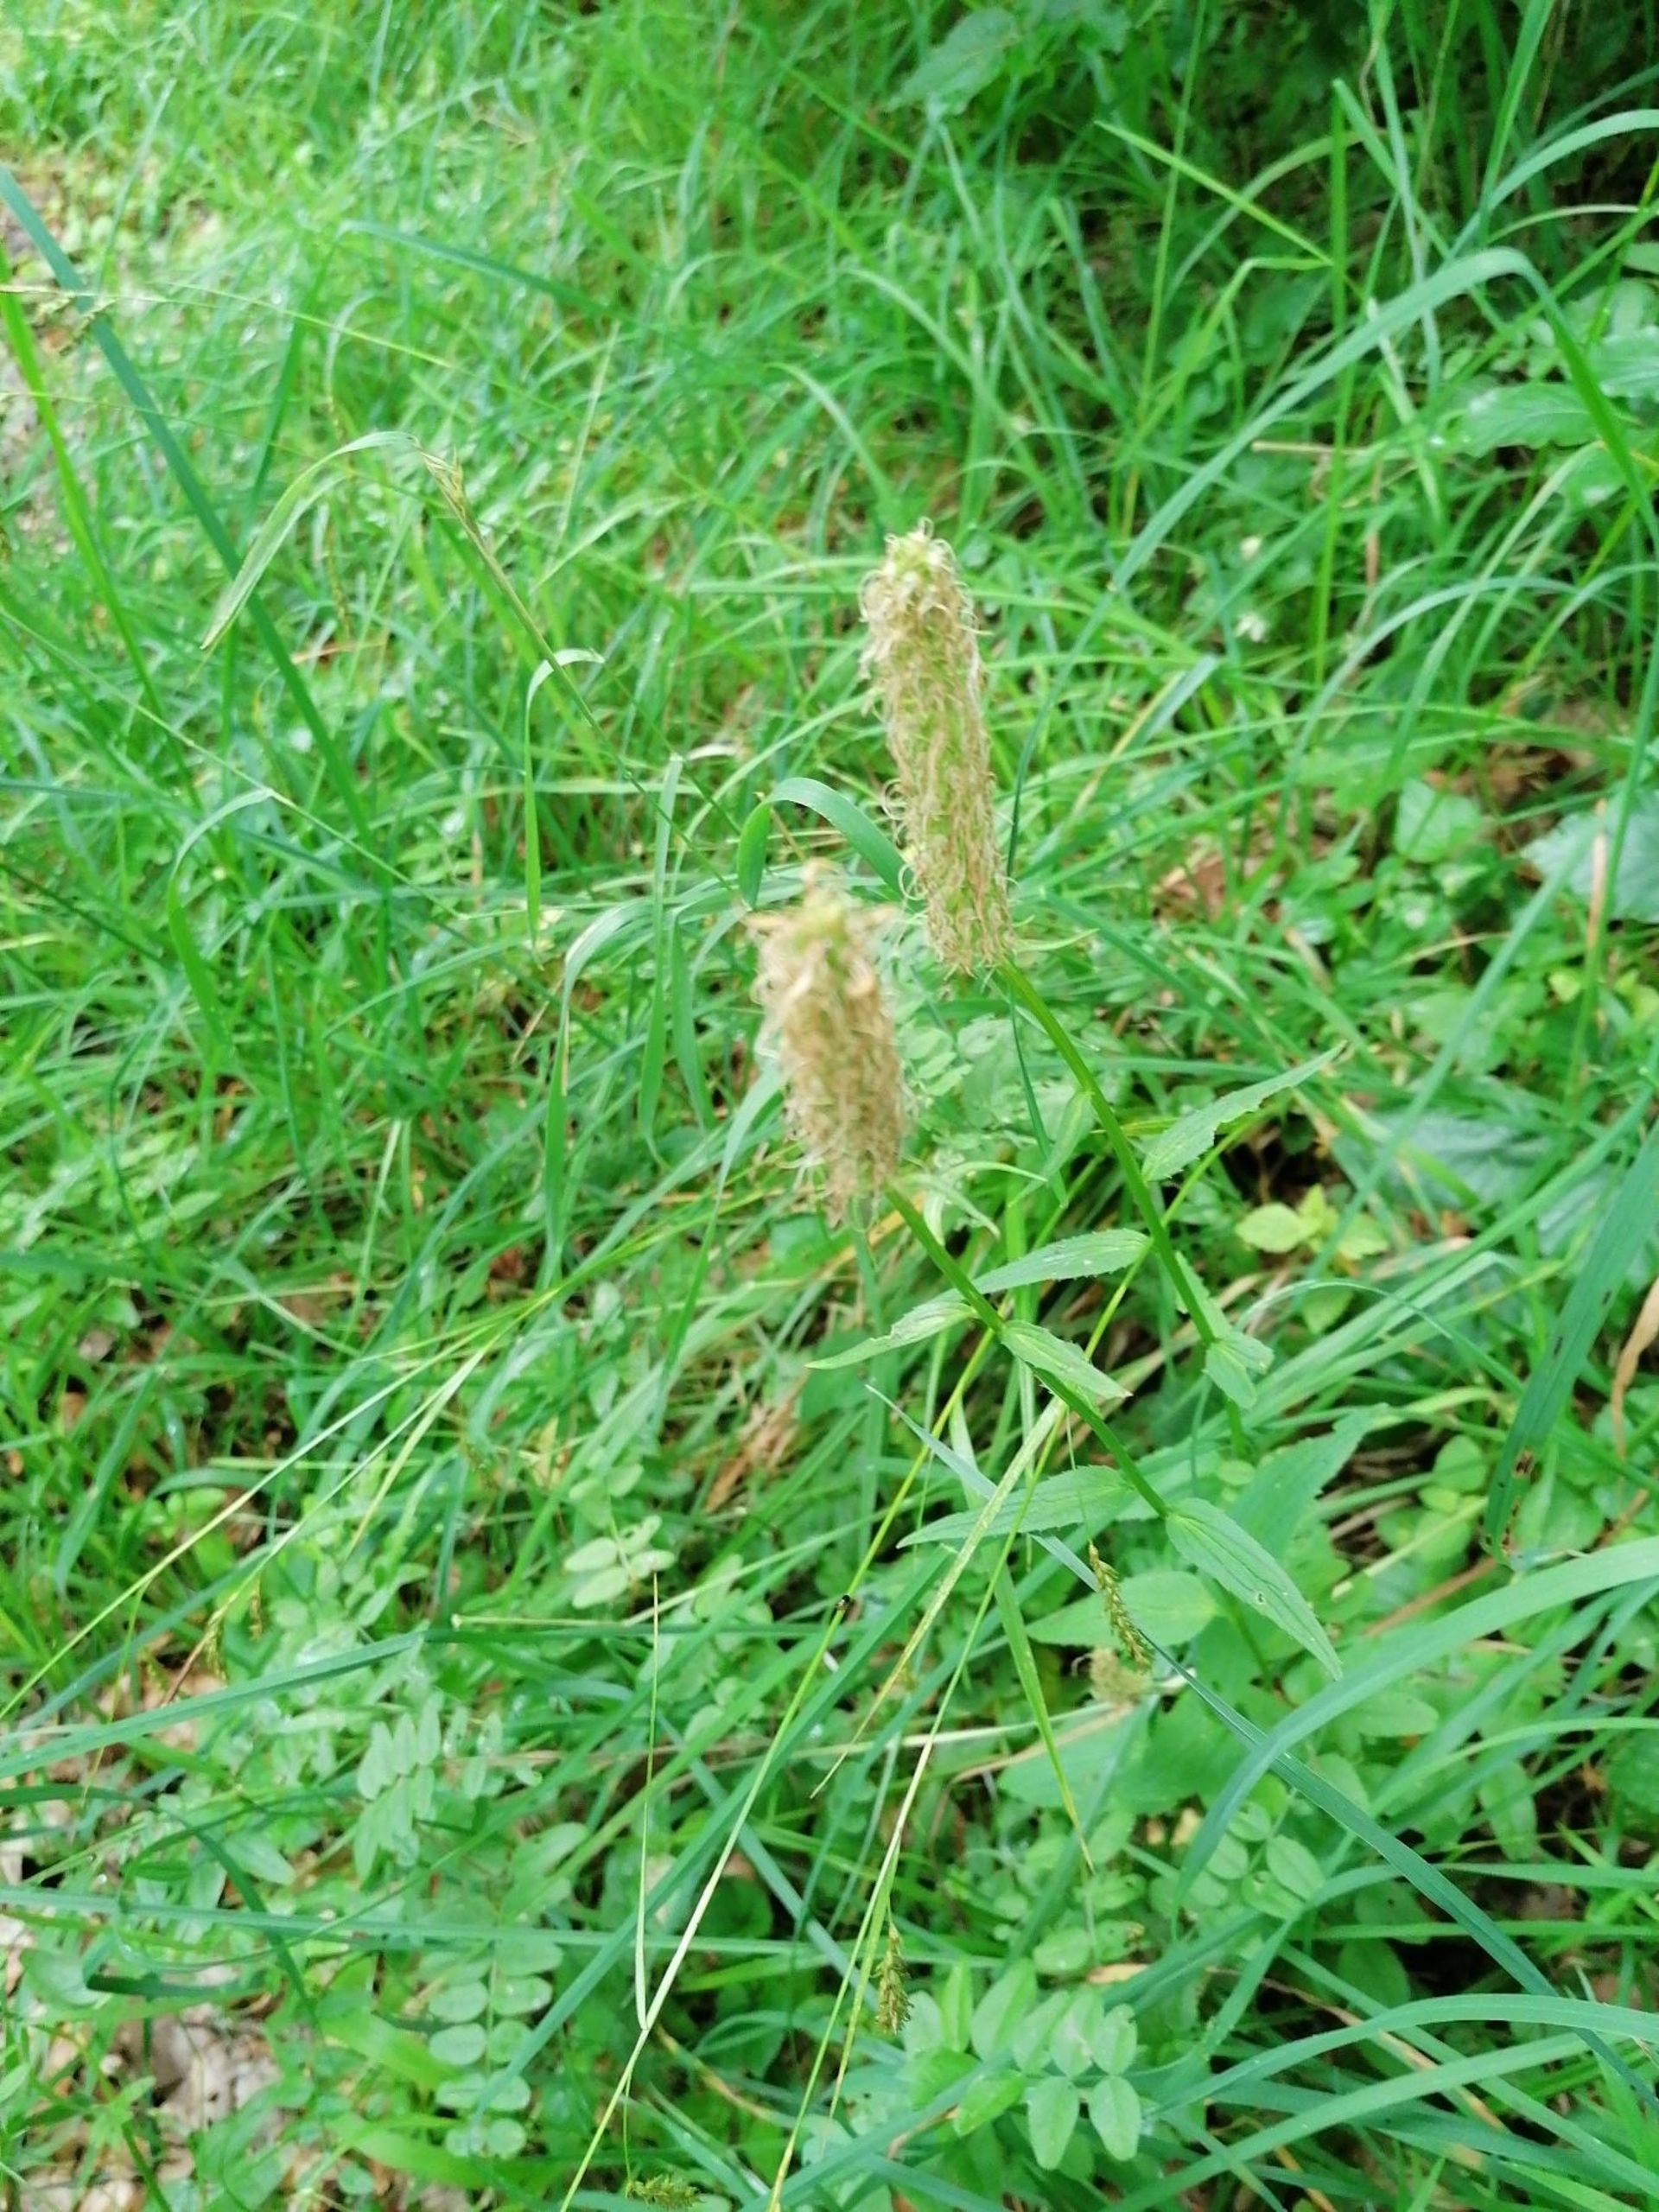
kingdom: Plantae
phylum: Tracheophyta
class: Magnoliopsida
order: Asterales
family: Campanulaceae
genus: Phyteuma
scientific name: Phyteuma spicatum
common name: Aks-rapunsel
